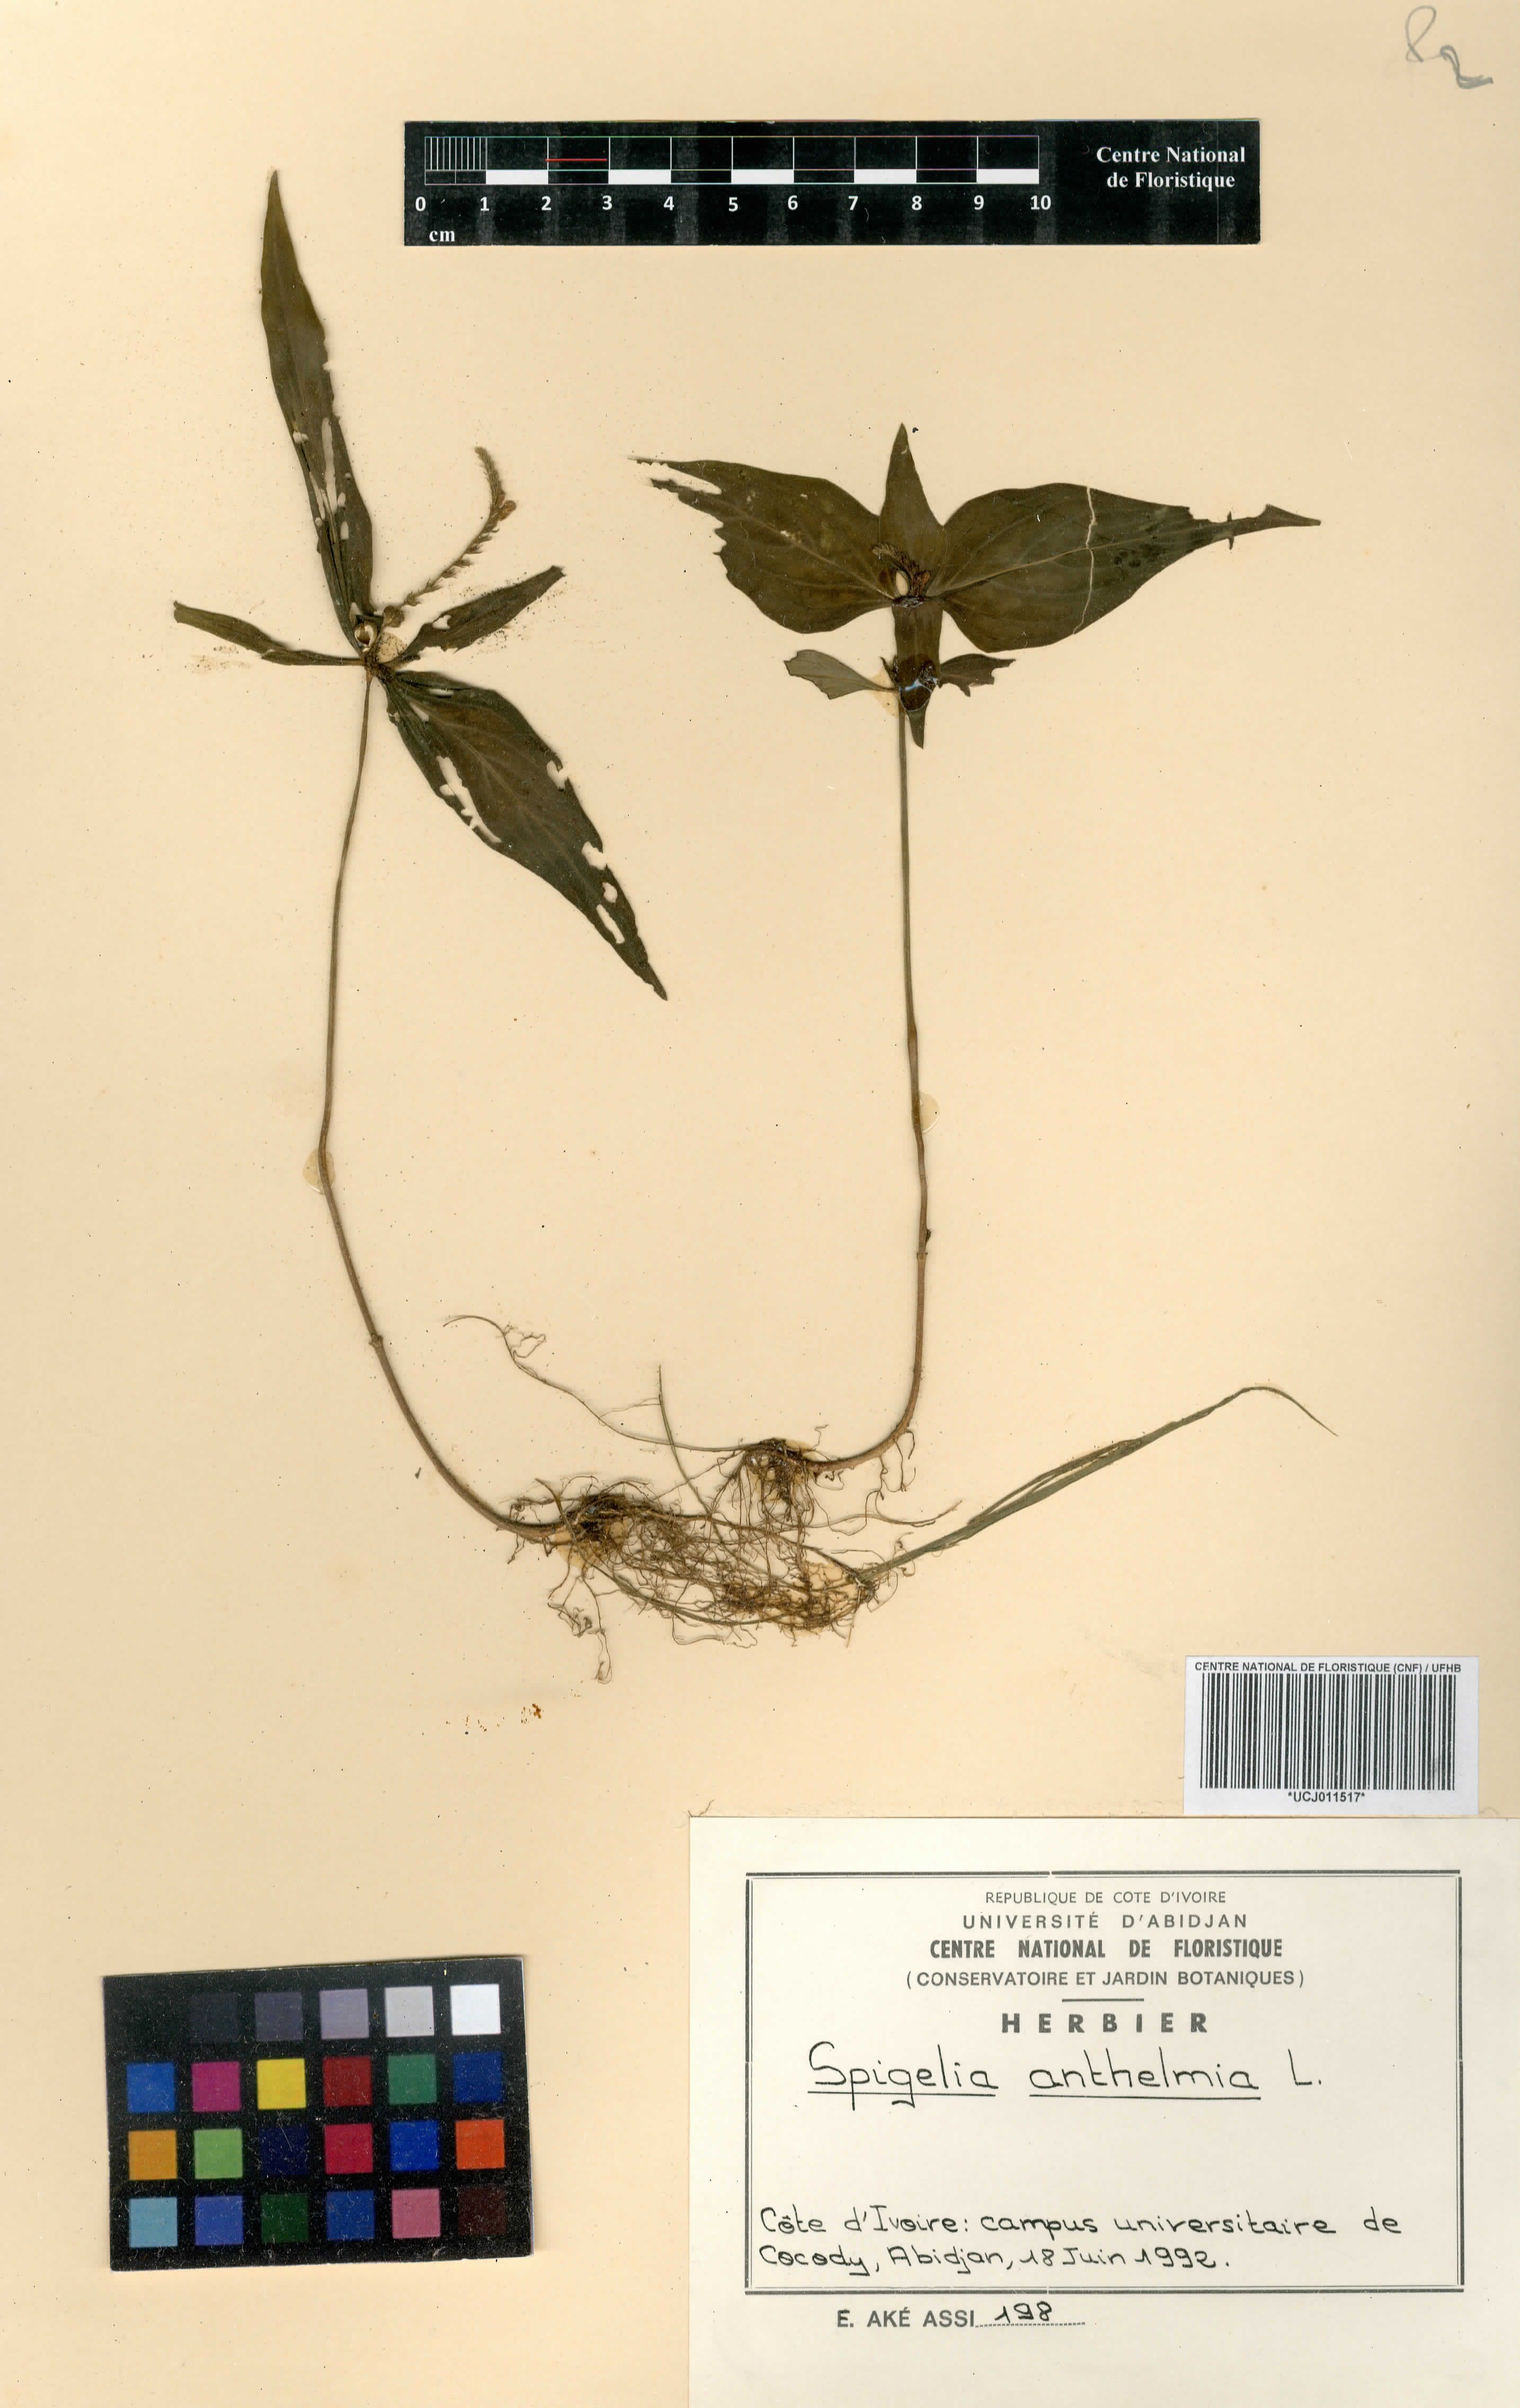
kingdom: Plantae
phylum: Tracheophyta
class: Magnoliopsida
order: Gentianales
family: Loganiaceae
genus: Spigelia
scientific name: Spigelia anthelmia
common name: West indian-pink
